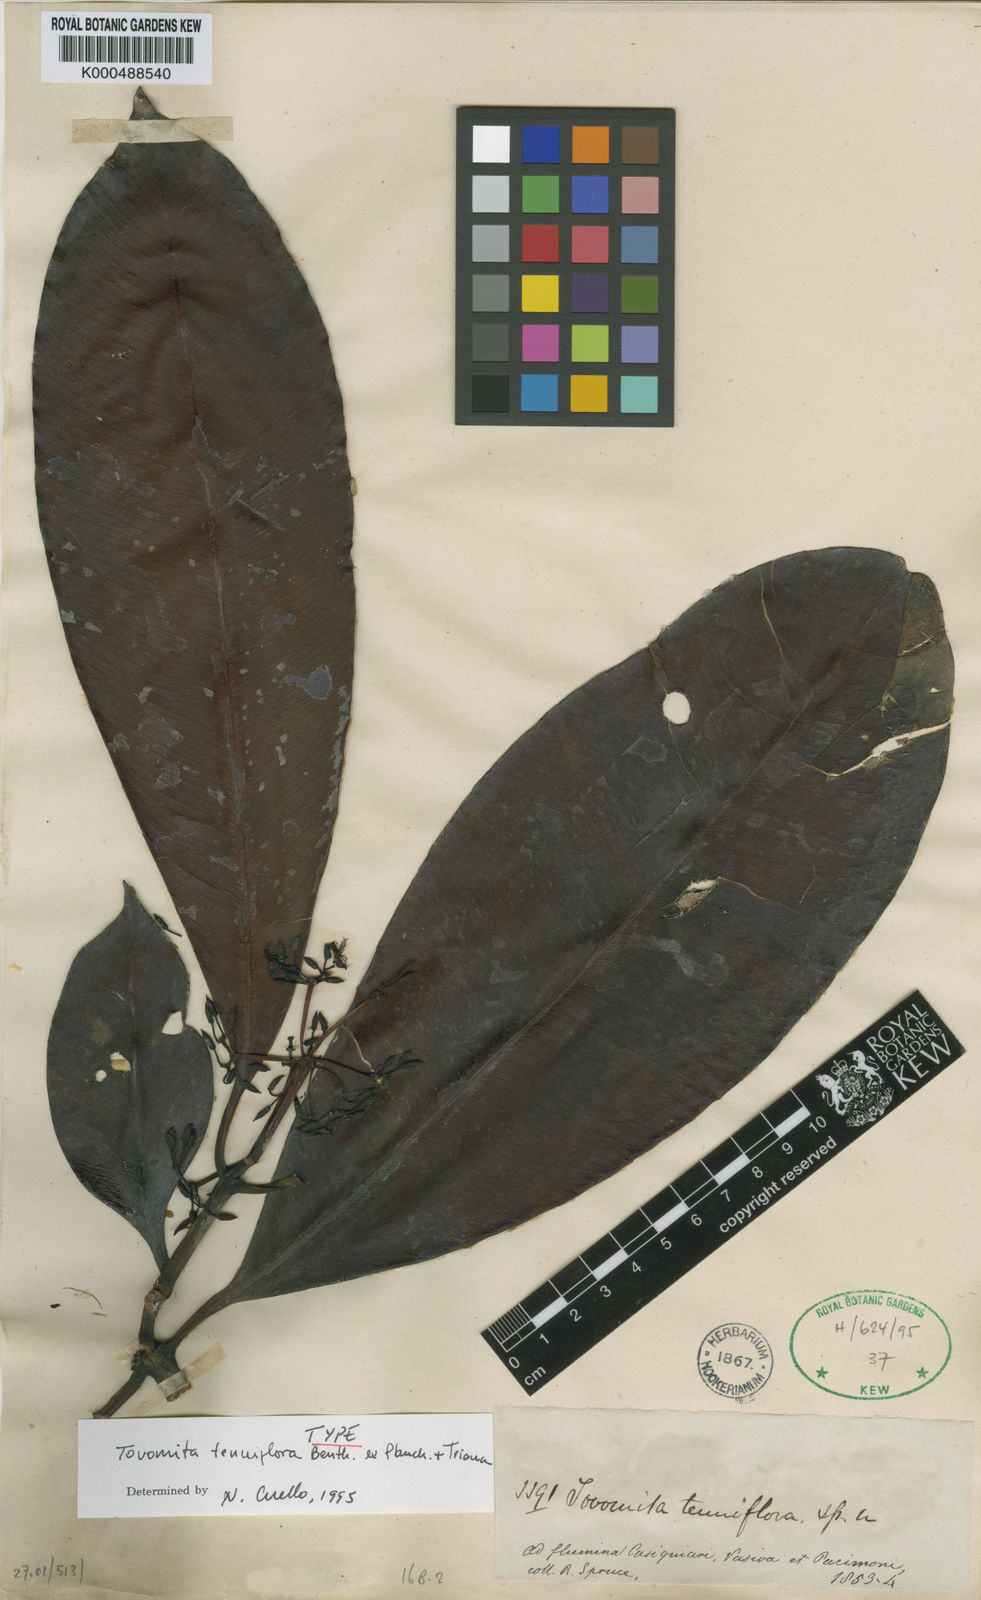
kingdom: Plantae
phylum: Tracheophyta
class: Magnoliopsida
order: Malpighiales
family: Clusiaceae
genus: Tovomita
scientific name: Tovomita tenuiflora
